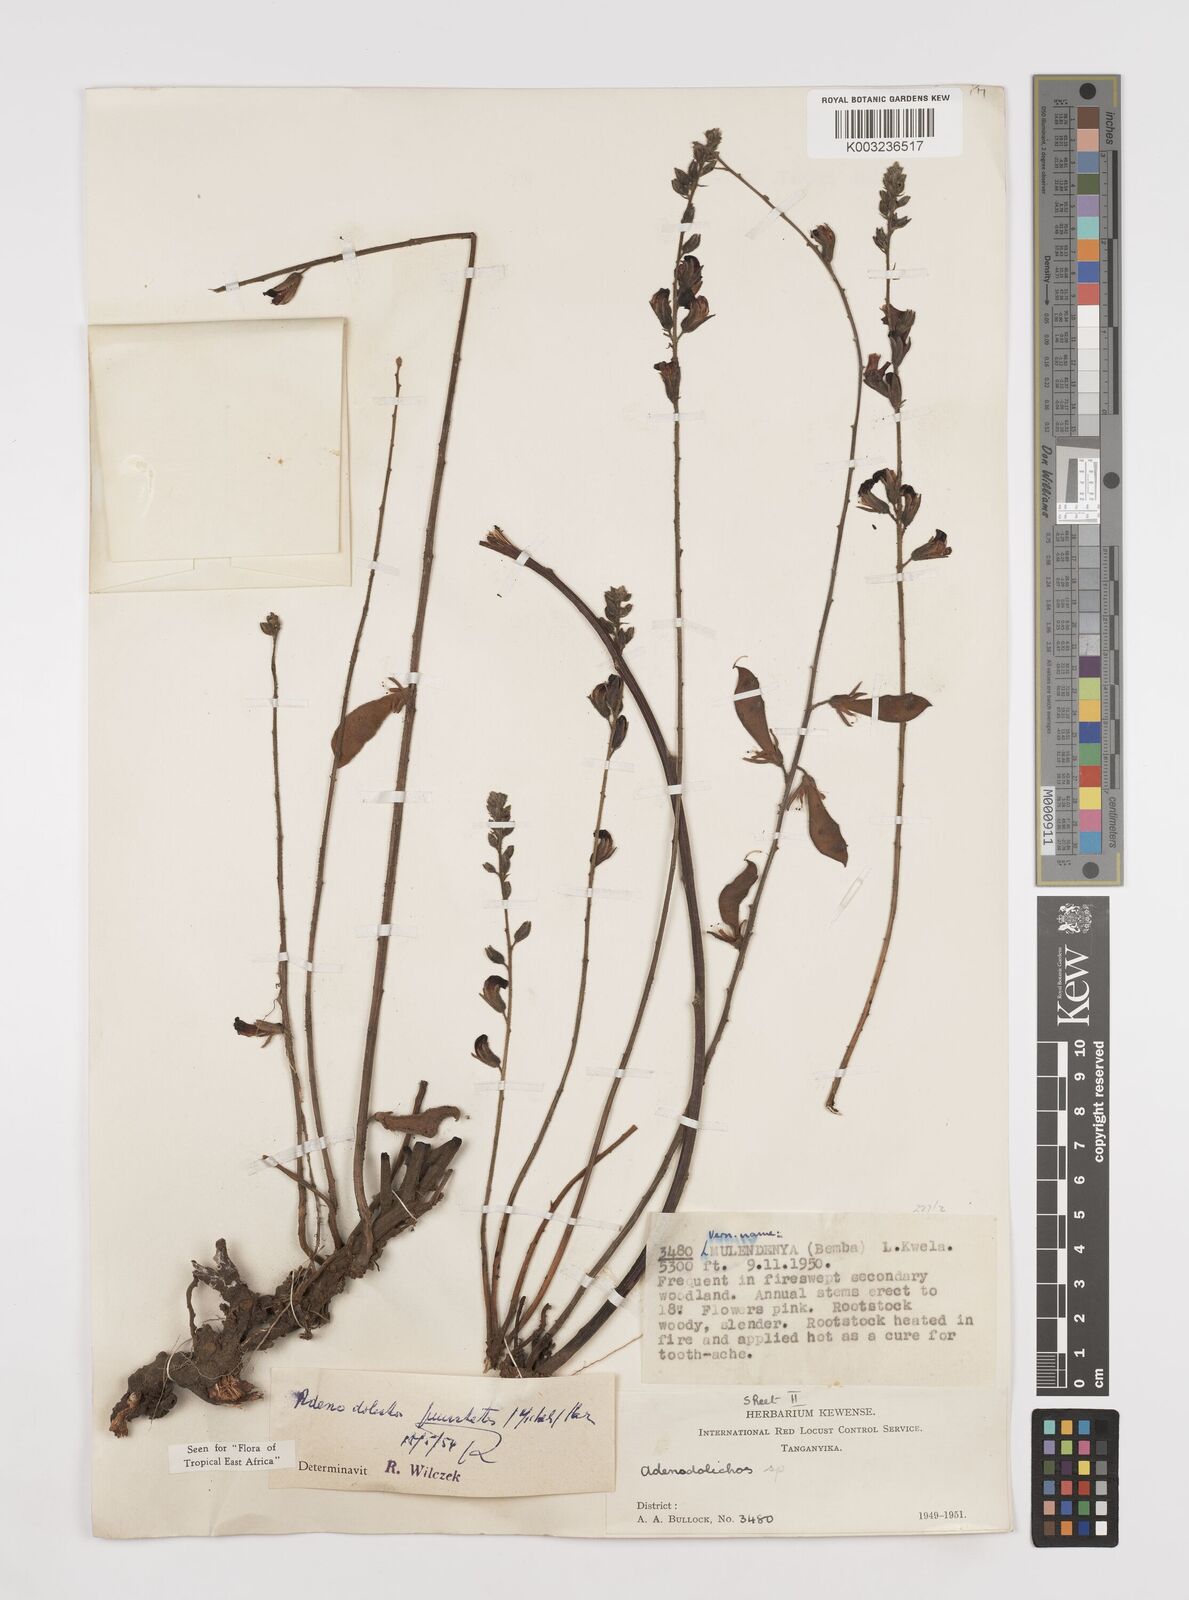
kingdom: Plantae
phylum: Tracheophyta
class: Magnoliopsida
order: Fabales
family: Fabaceae
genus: Adenodolichos
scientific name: Adenodolichos punctatus
